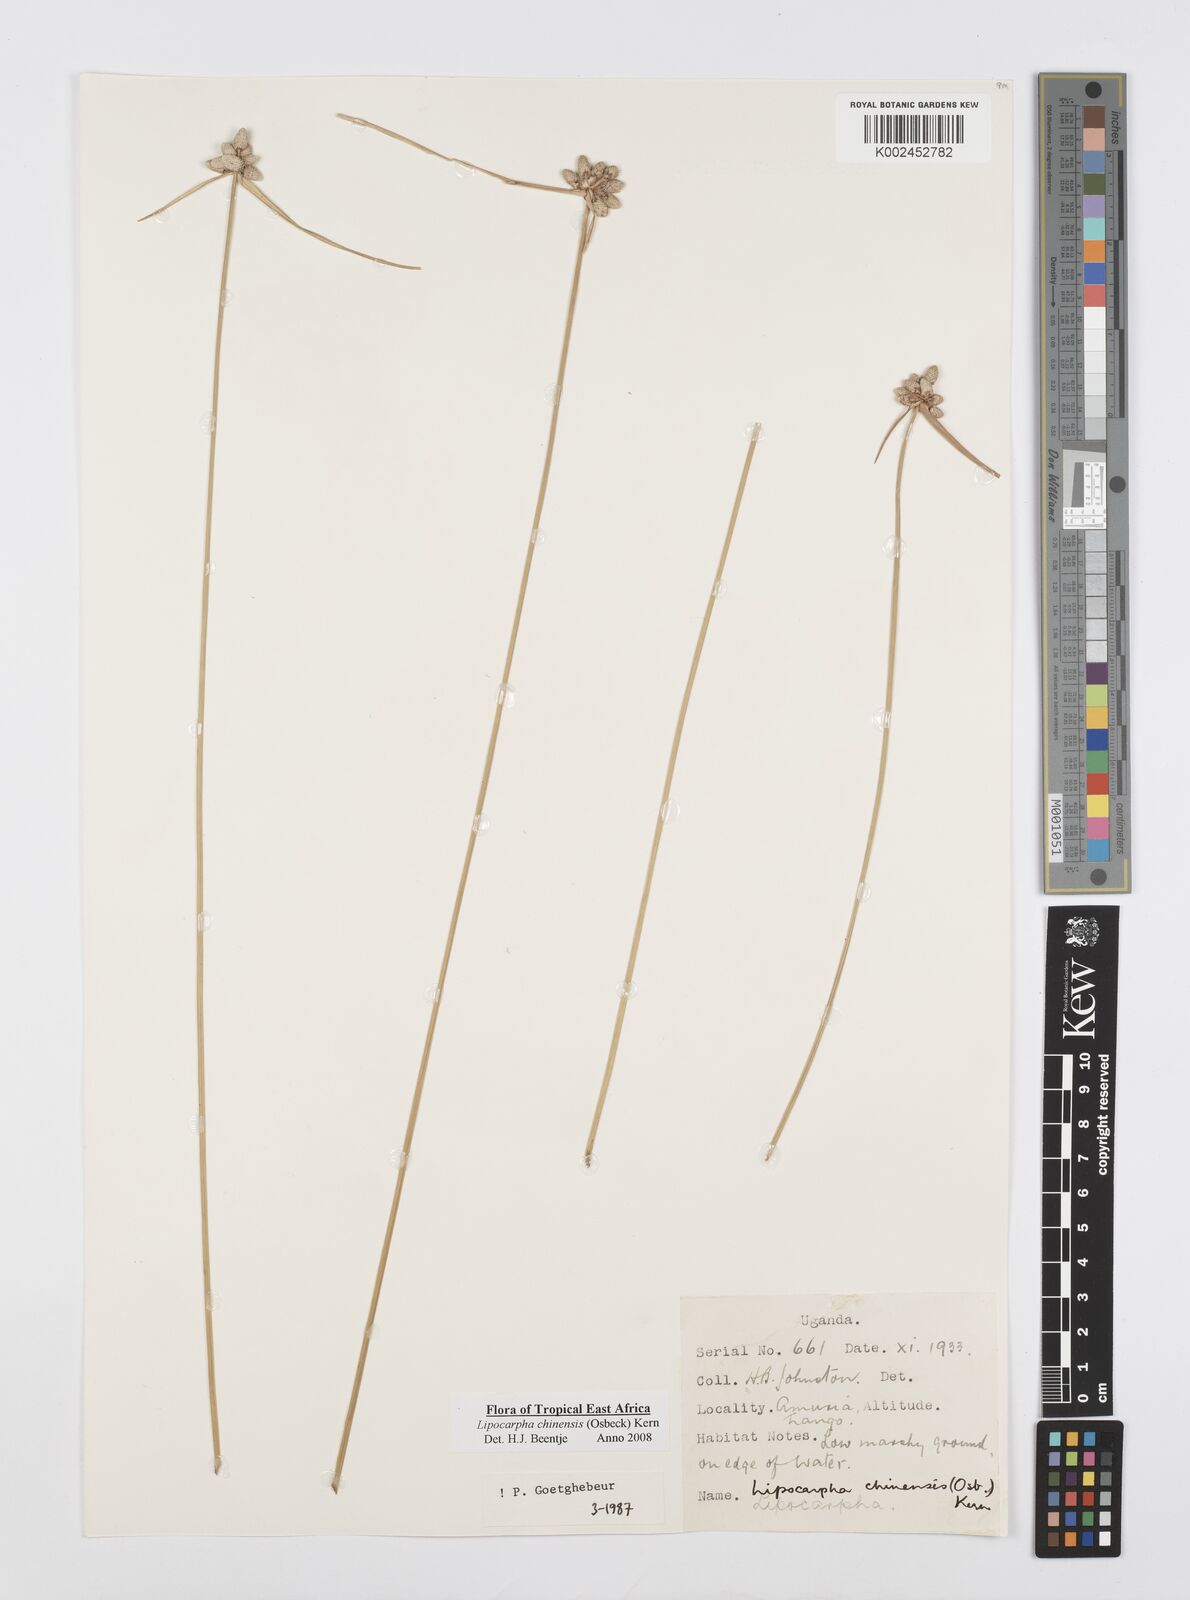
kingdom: Plantae
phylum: Tracheophyta
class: Liliopsida
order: Poales
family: Cyperaceae
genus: Cyperus
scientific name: Cyperus albescens
